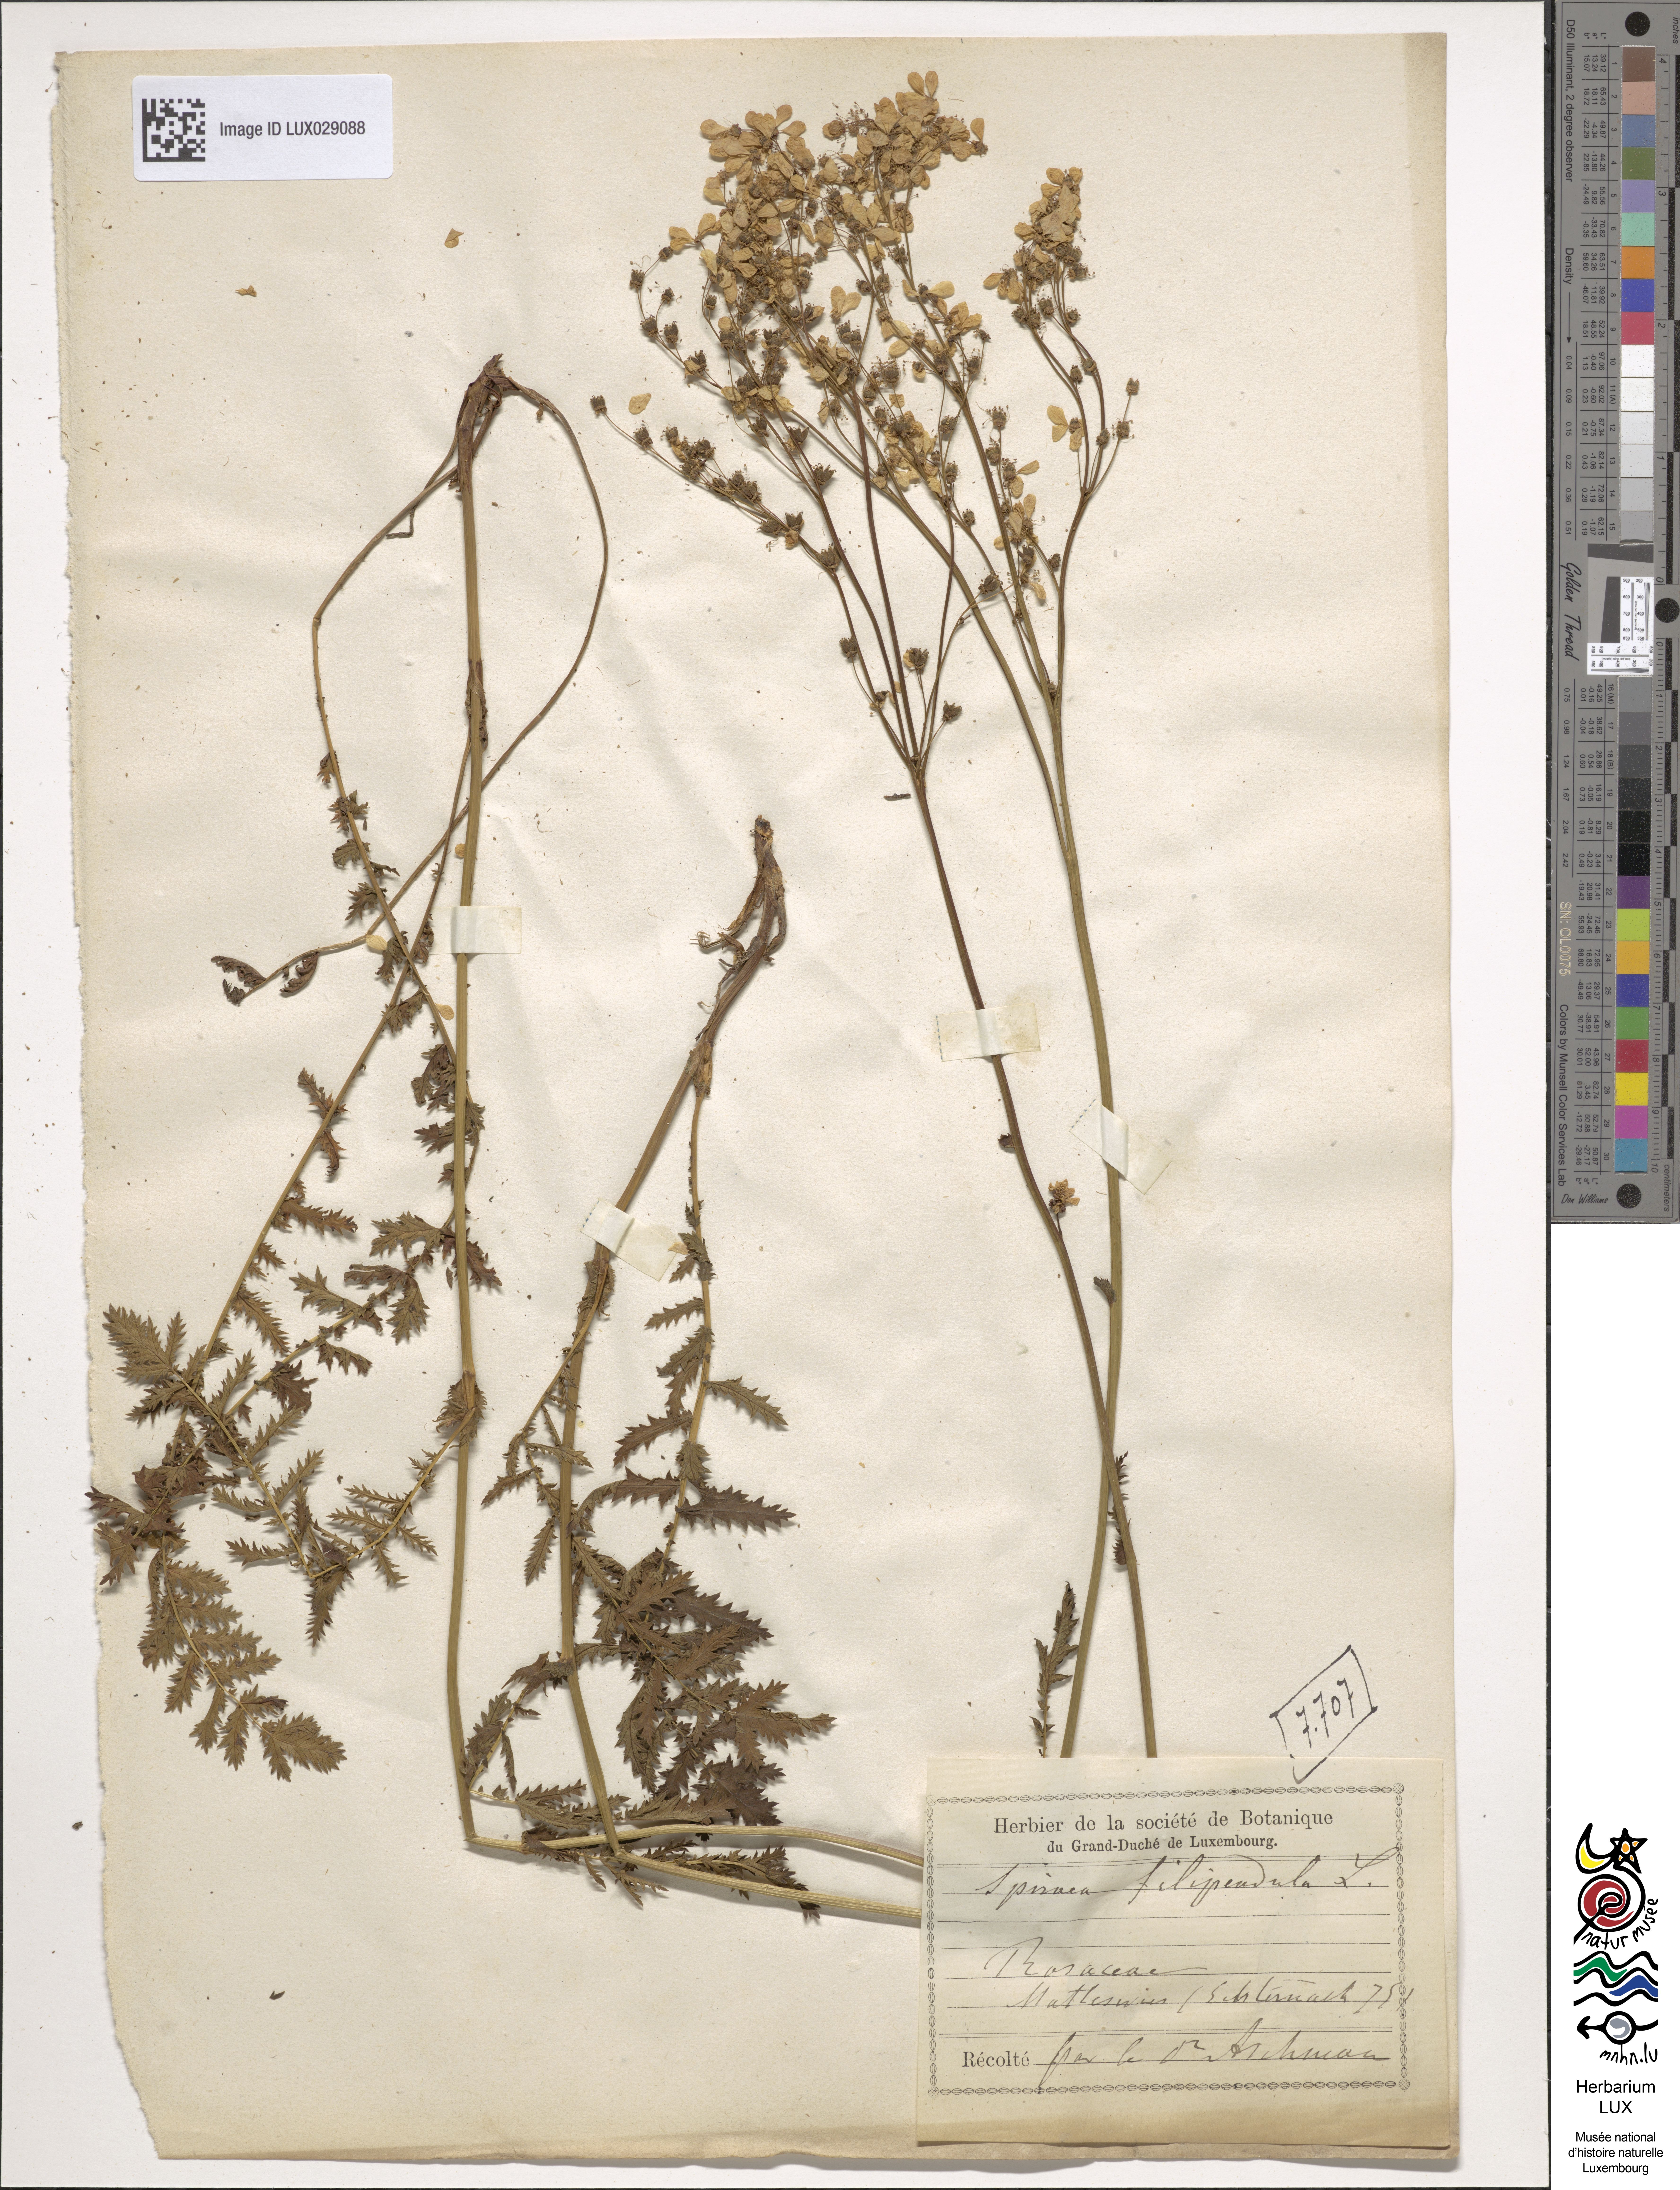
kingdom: Plantae
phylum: Tracheophyta
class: Magnoliopsida
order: Rosales
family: Rosaceae
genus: Filipendula
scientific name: Filipendula vulgaris
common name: Dropwort
